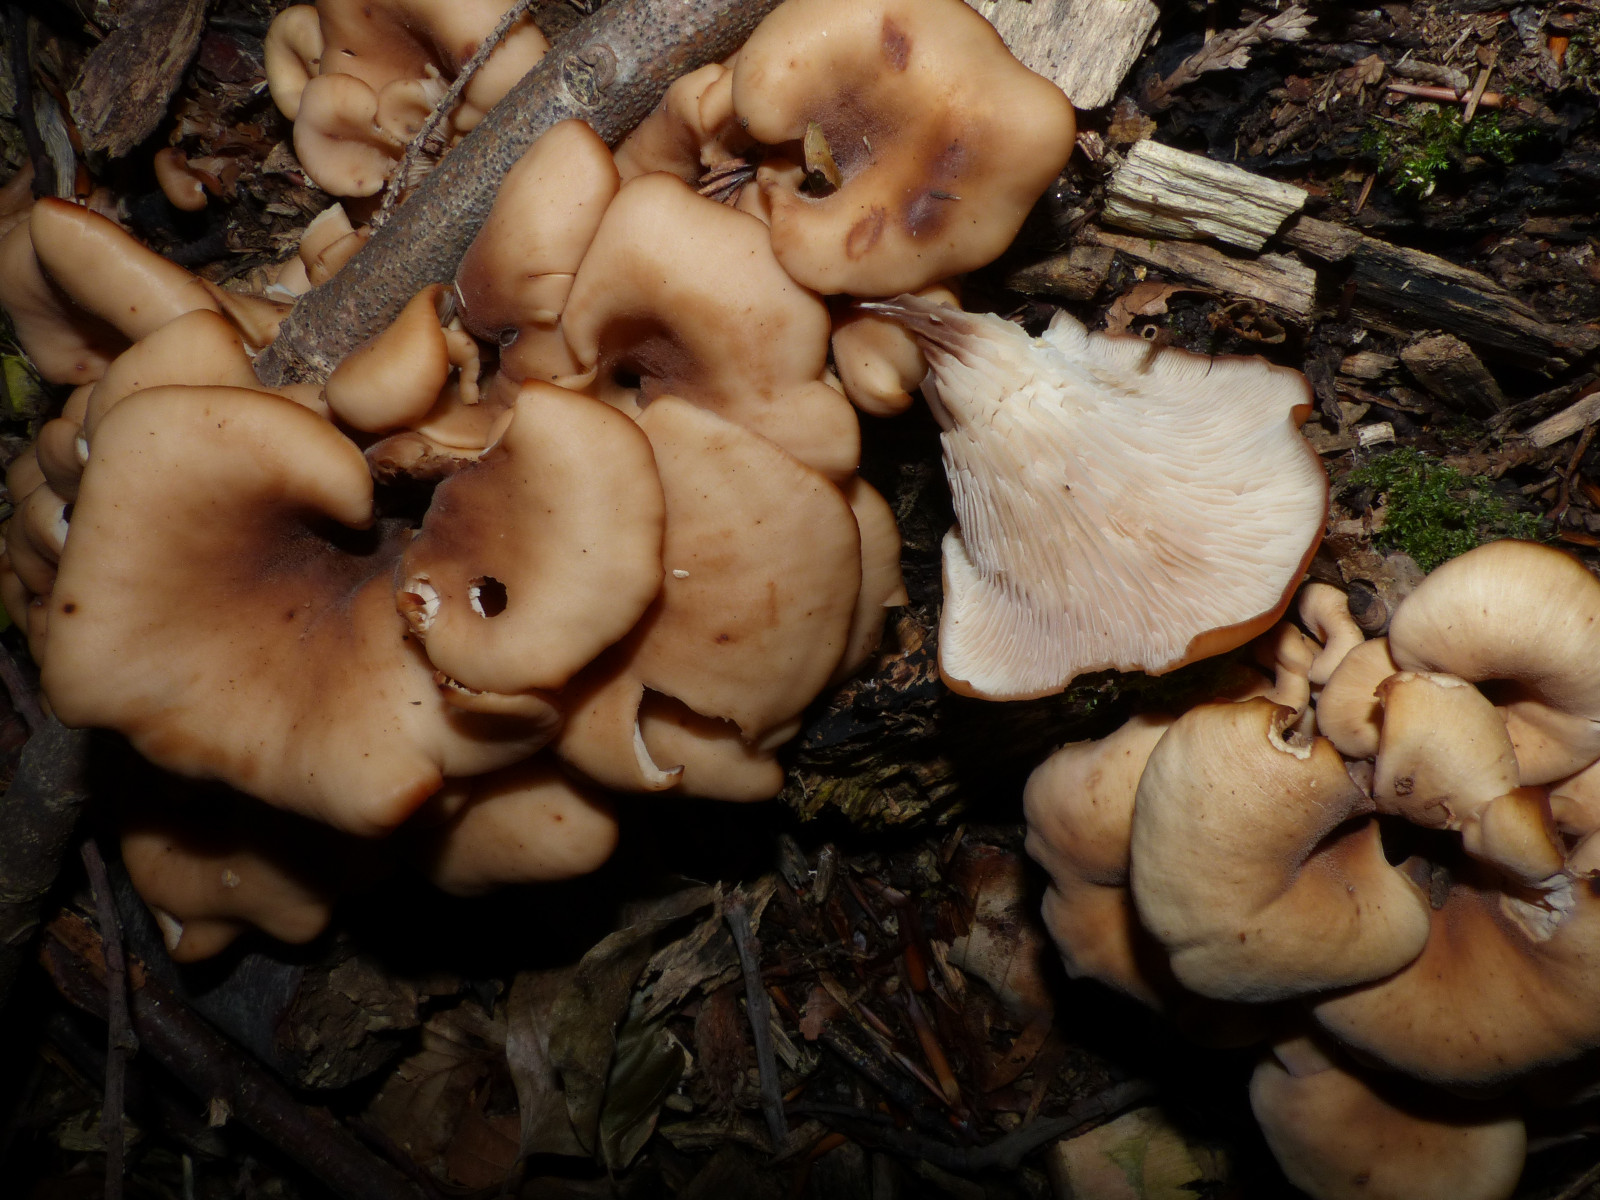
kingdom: Fungi
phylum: Basidiomycota
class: Agaricomycetes
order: Russulales
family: Auriscalpiaceae
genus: Lentinellus
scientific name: Lentinellus cochleatus
